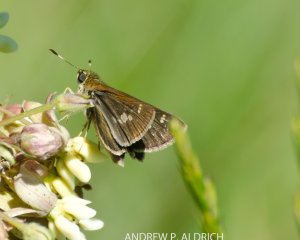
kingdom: Animalia
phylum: Arthropoda
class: Insecta
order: Lepidoptera
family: Hesperiidae
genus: Vernia
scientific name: Vernia verna
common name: Little Glassywing
